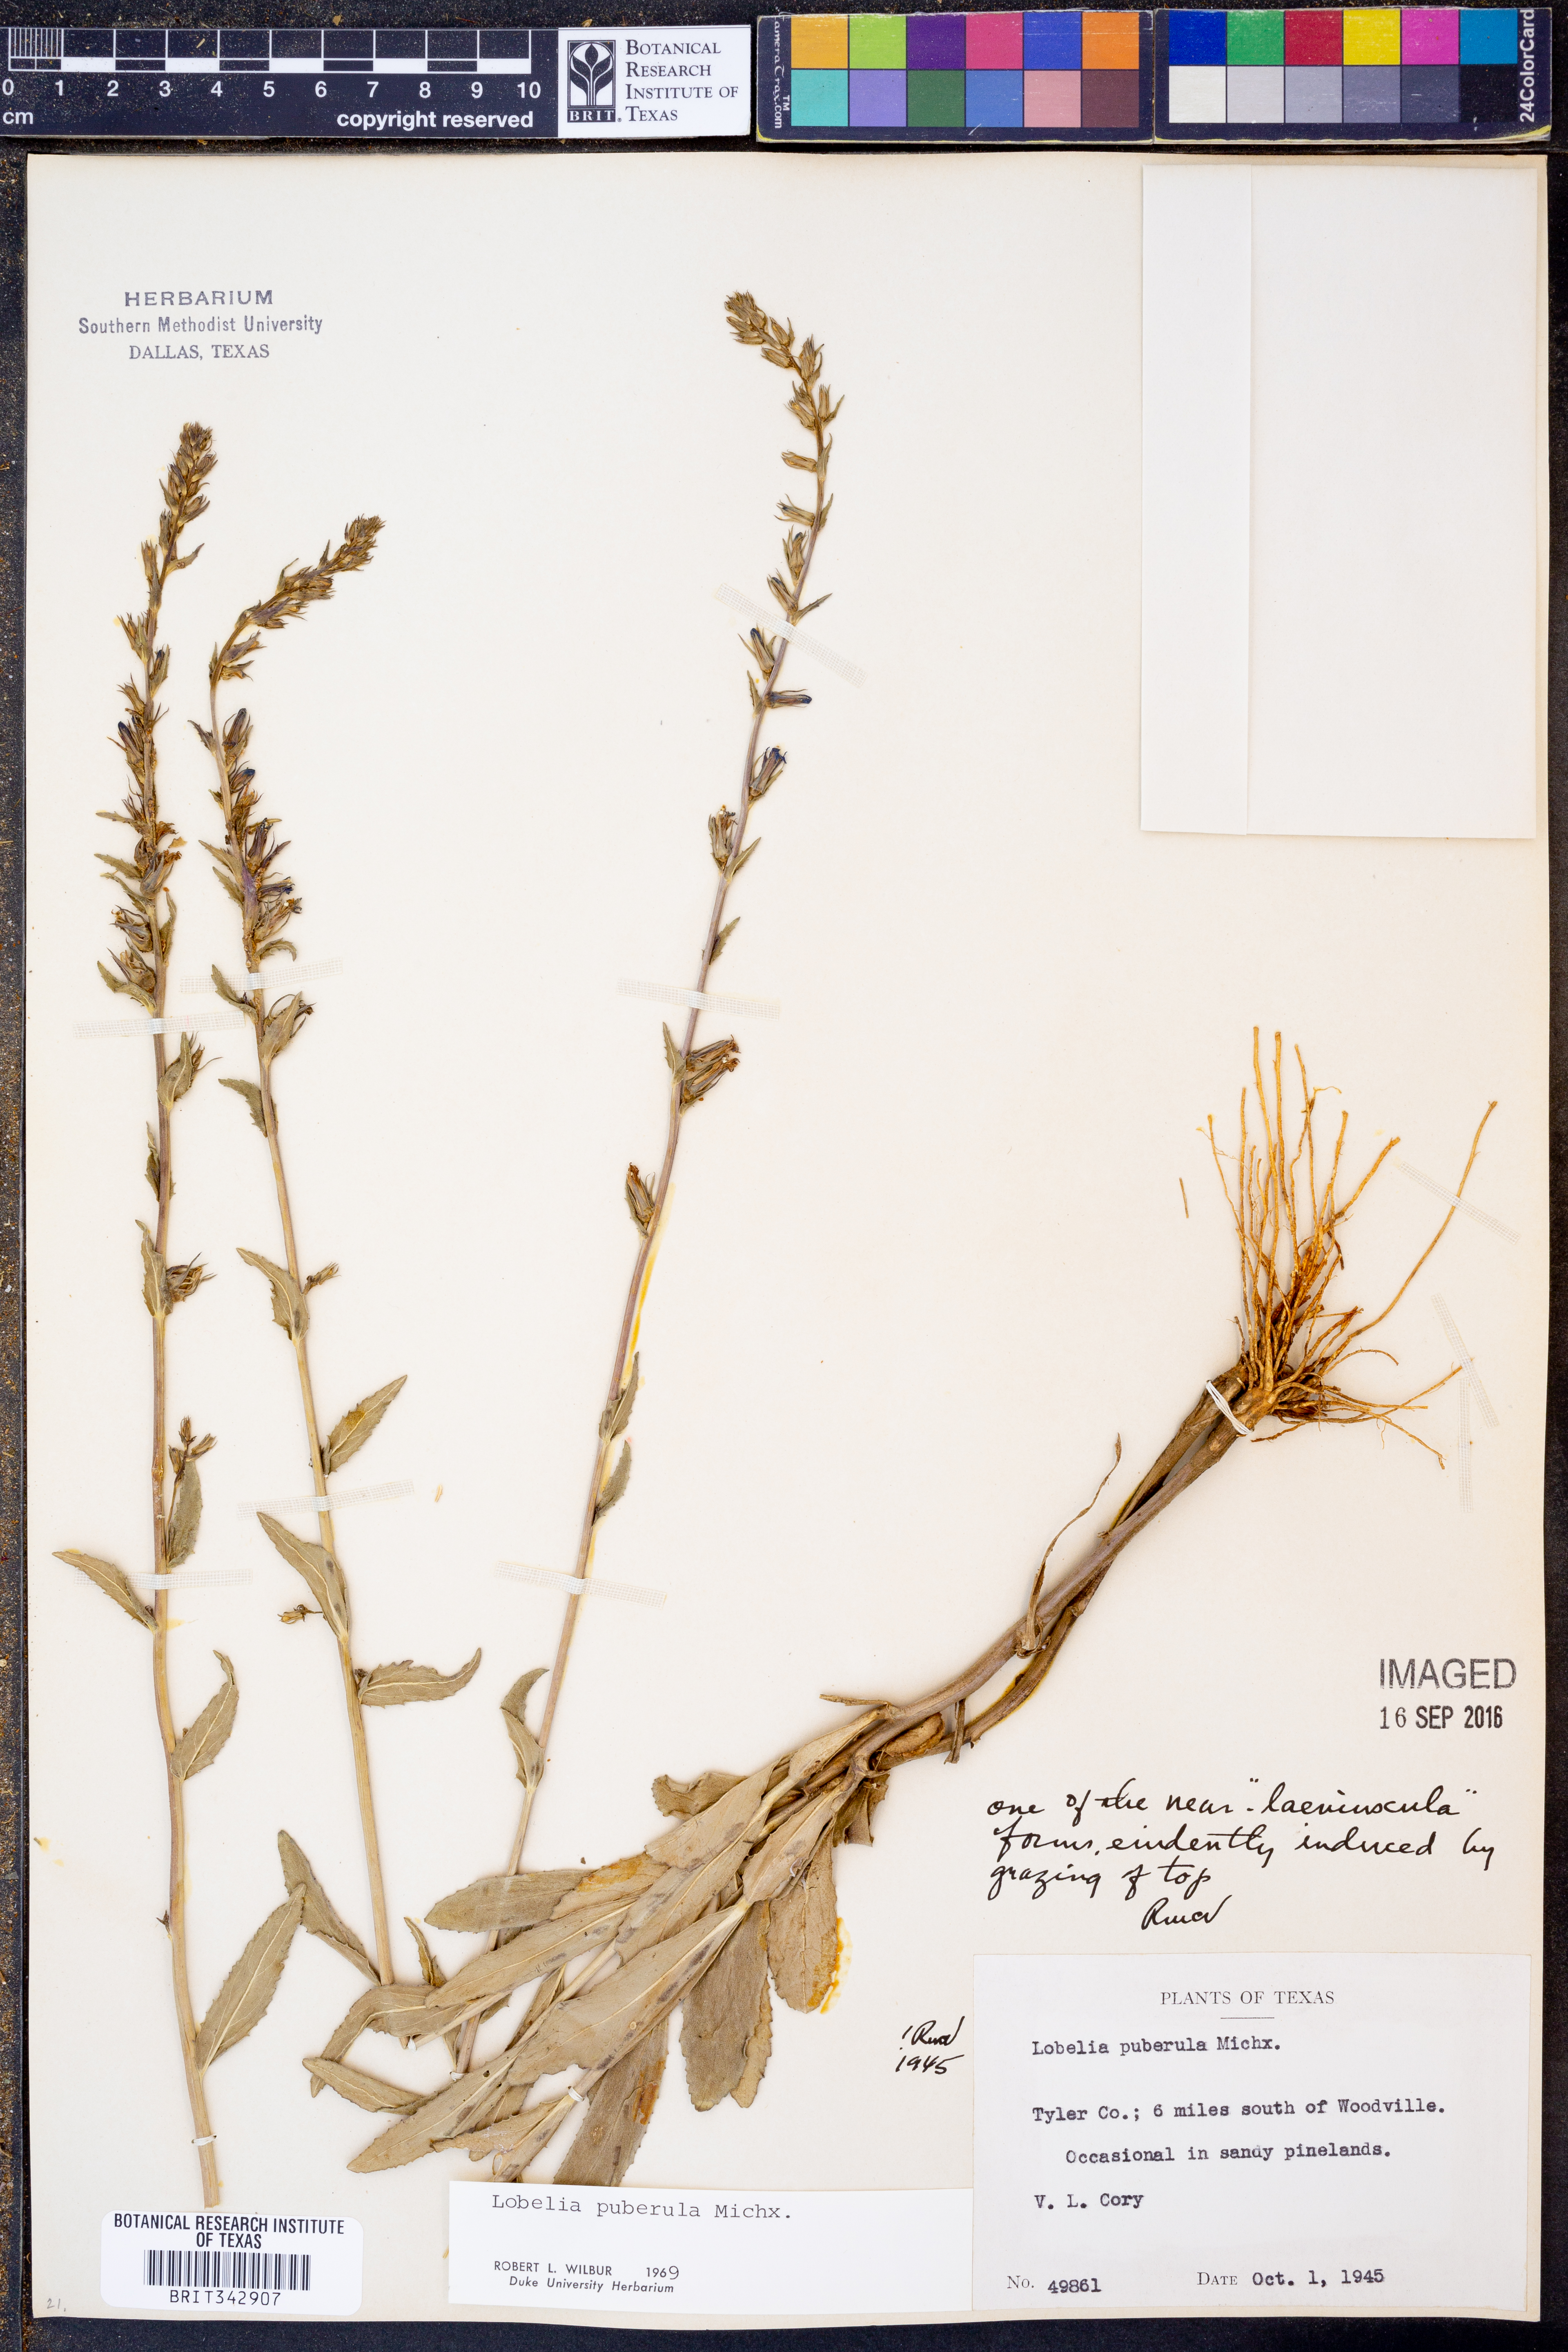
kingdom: Plantae
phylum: Tracheophyta
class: Magnoliopsida
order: Asterales
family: Campanulaceae
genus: Lobelia
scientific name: Lobelia puberula
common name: Purple dewdrop
